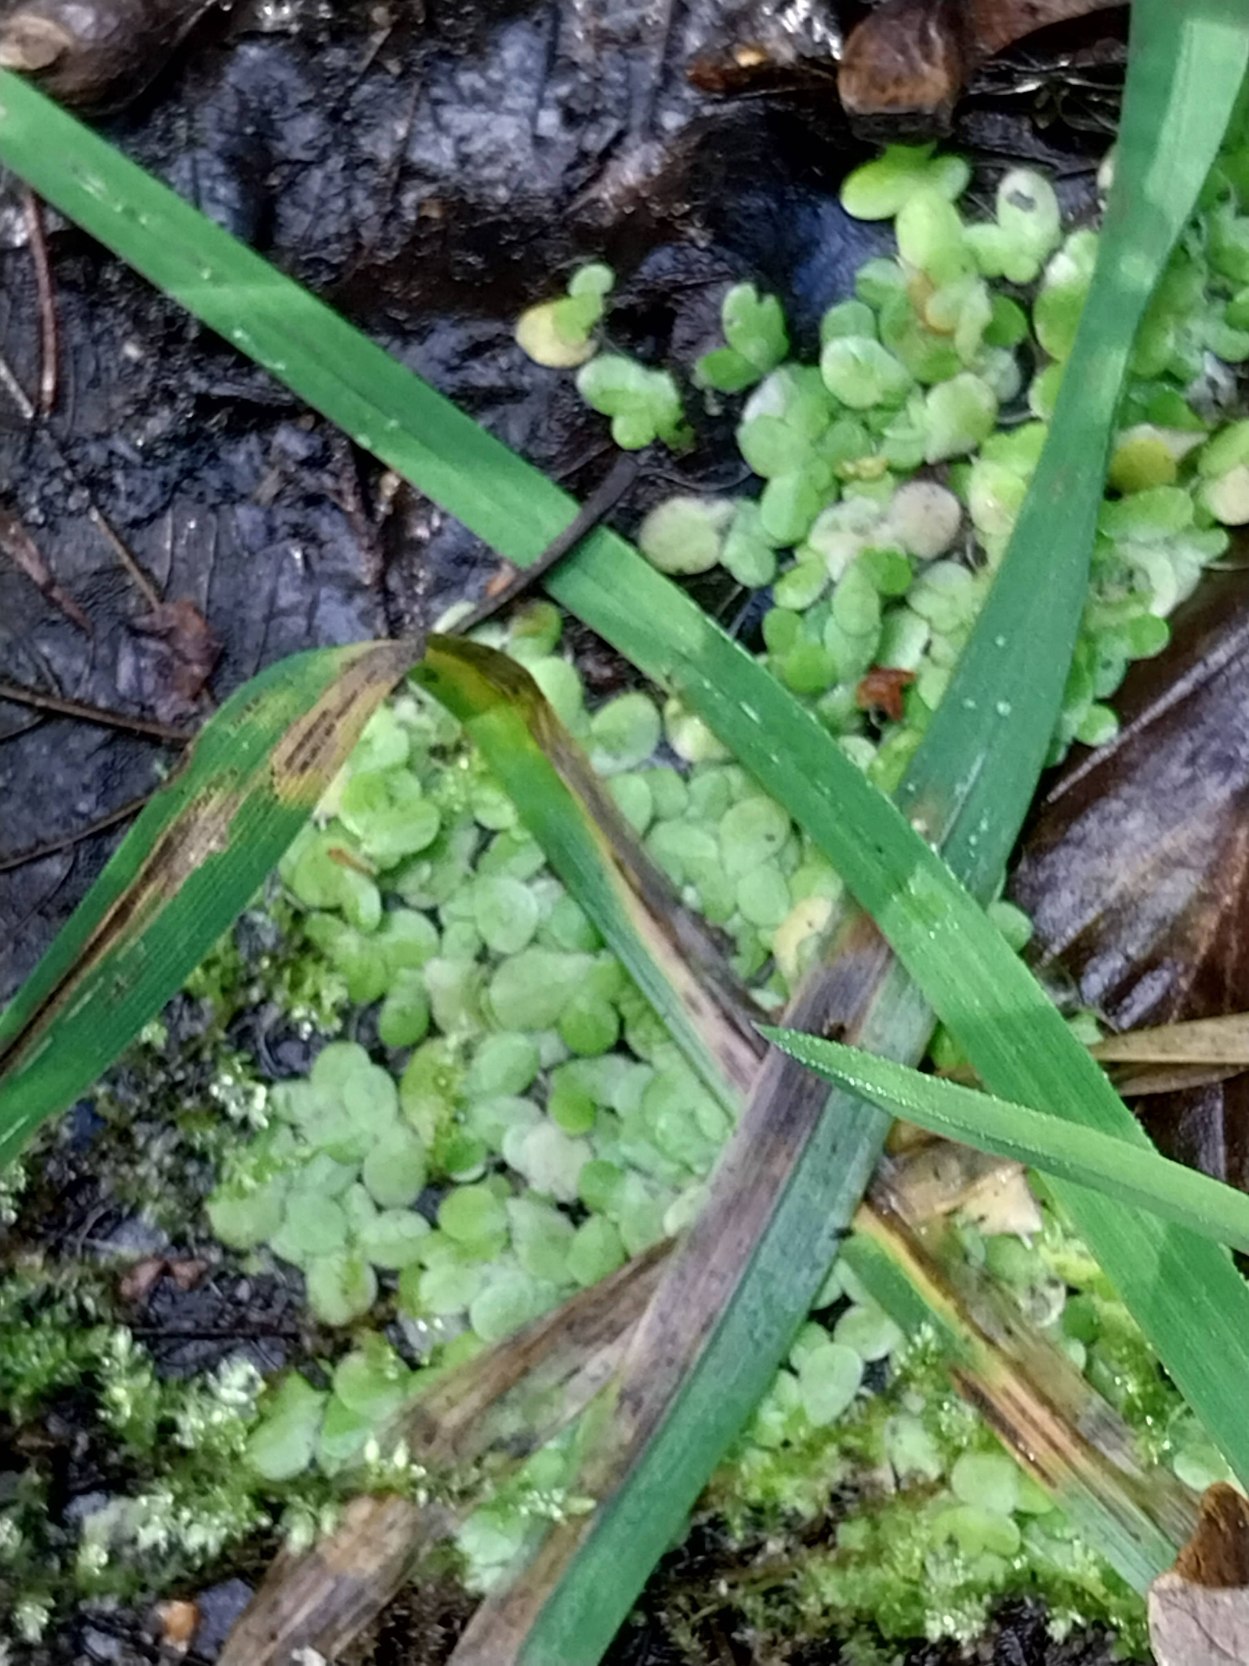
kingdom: Plantae
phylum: Tracheophyta
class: Liliopsida
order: Alismatales
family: Araceae
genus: Lemna
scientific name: Lemna minor
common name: Liden andemad
